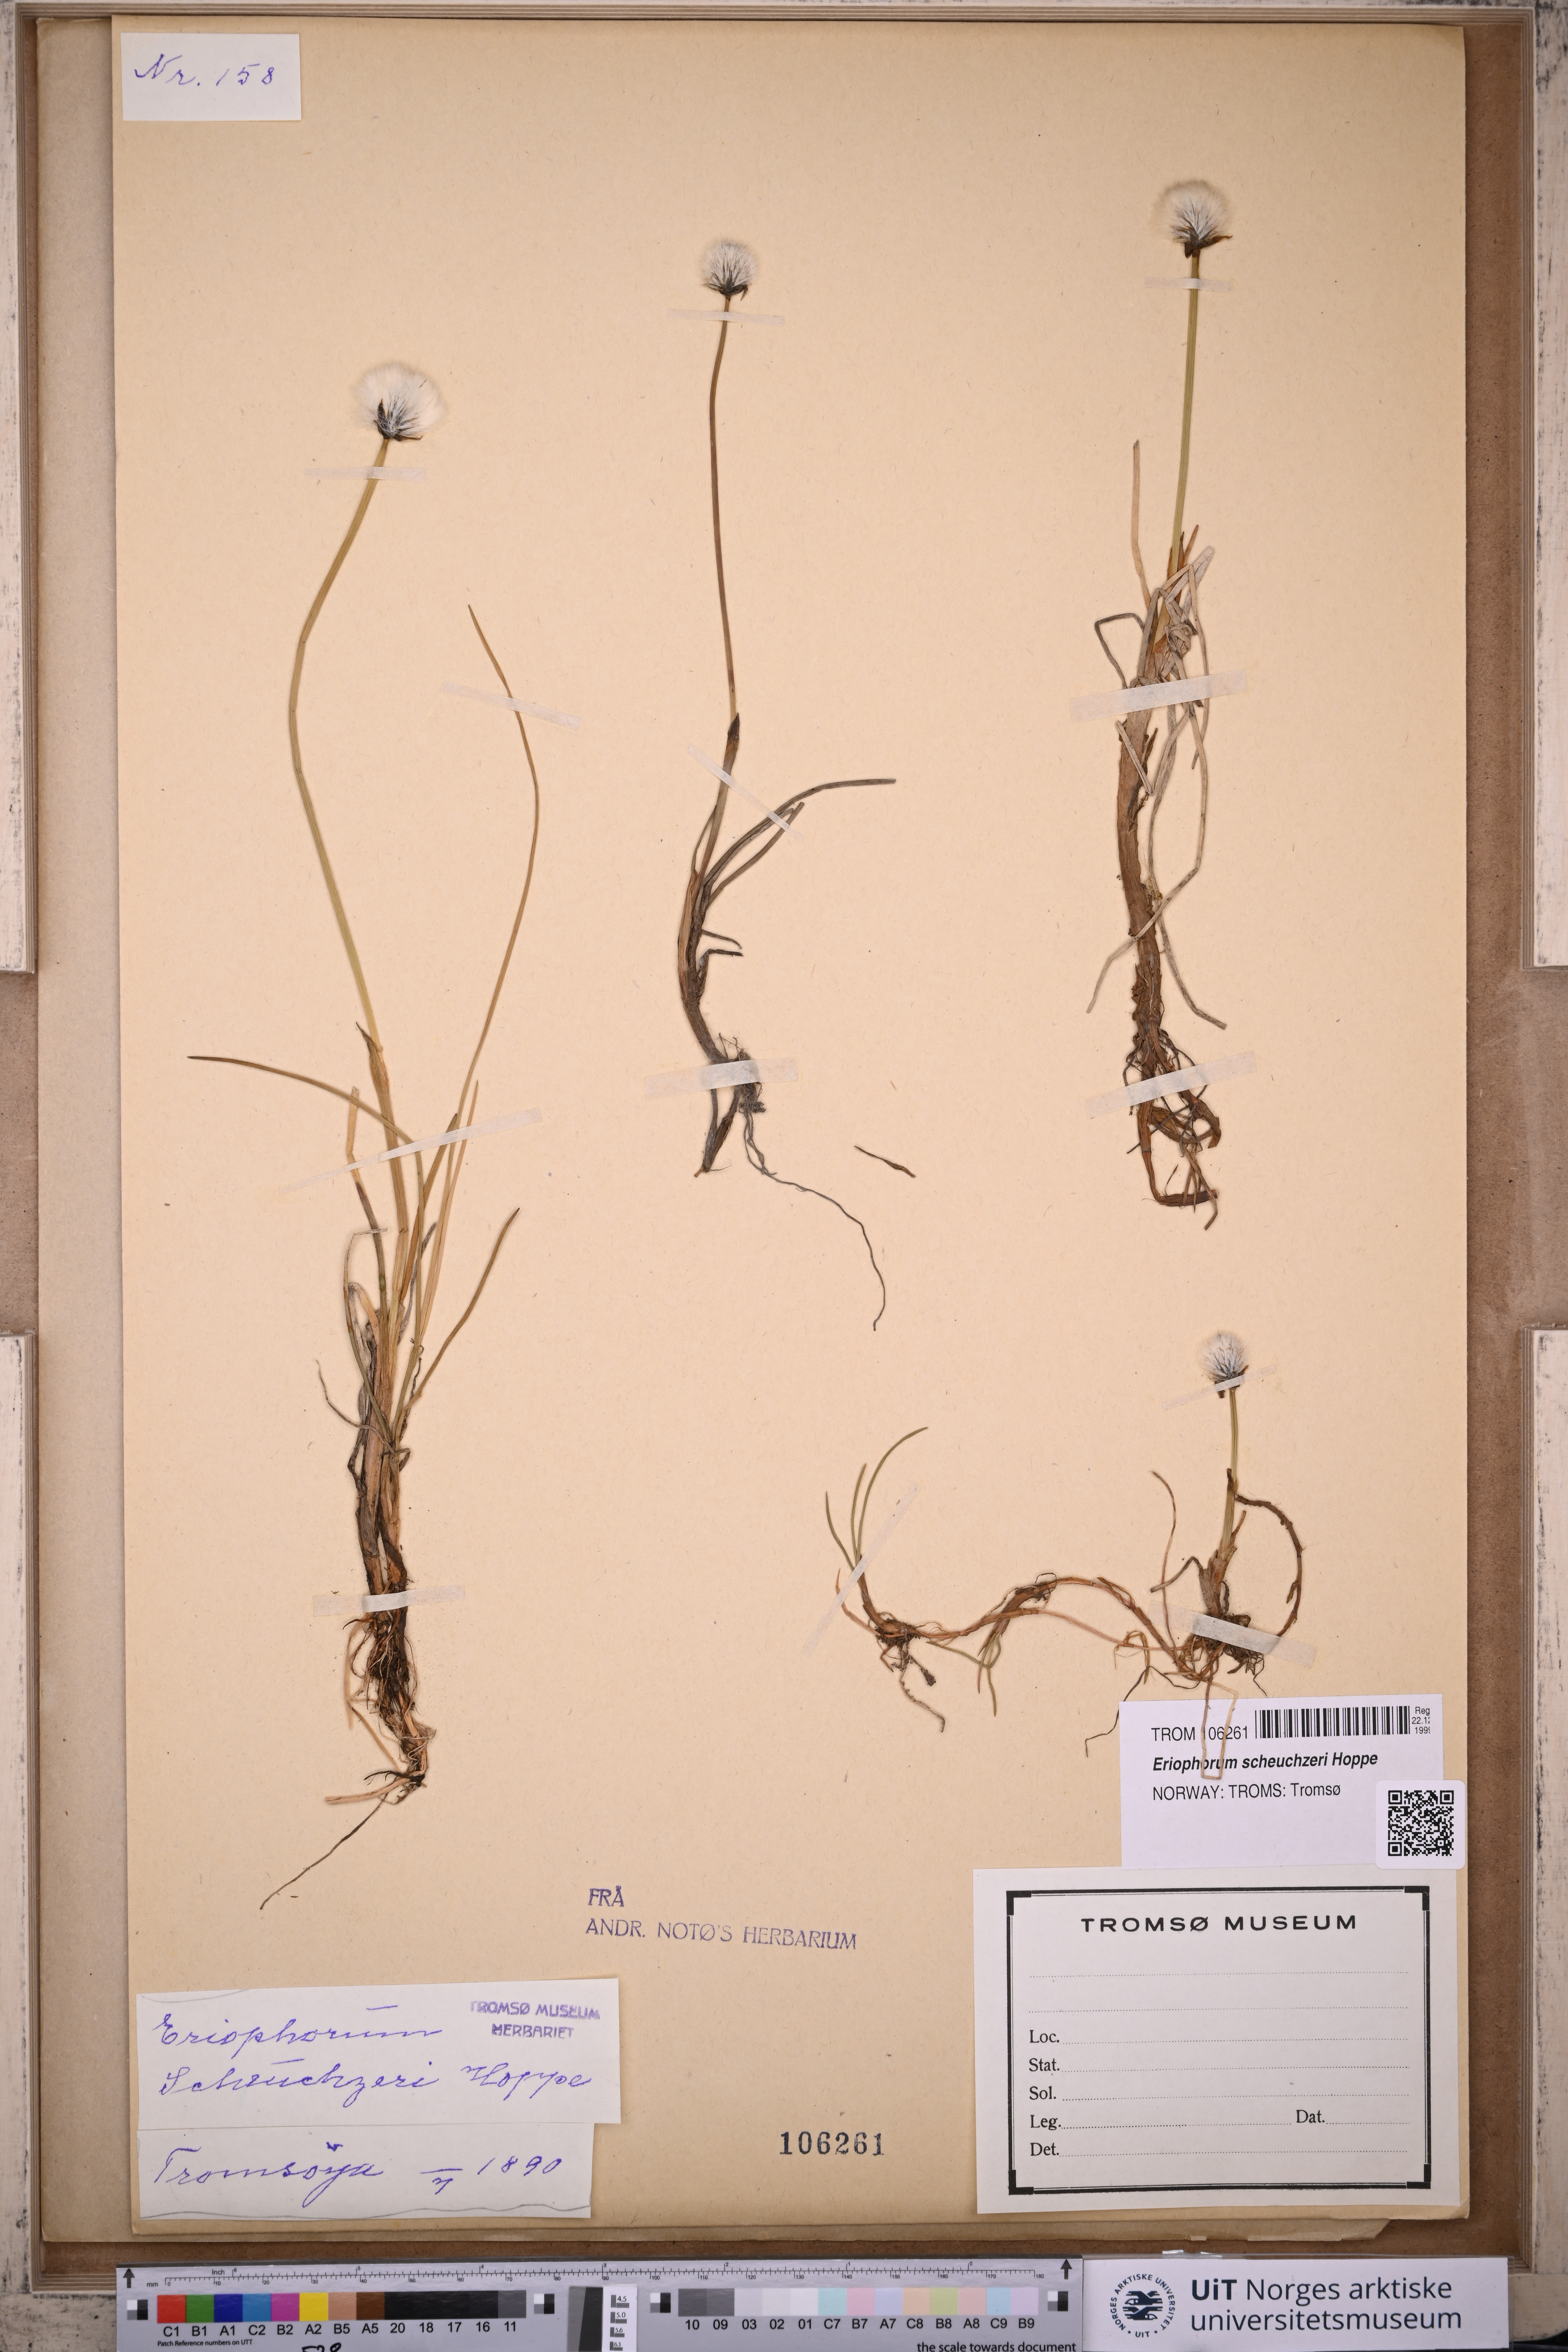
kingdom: Plantae
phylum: Tracheophyta
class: Liliopsida
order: Poales
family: Cyperaceae
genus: Eriophorum
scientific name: Eriophorum scheuchzeri
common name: Scheuchzer's cottongrass
